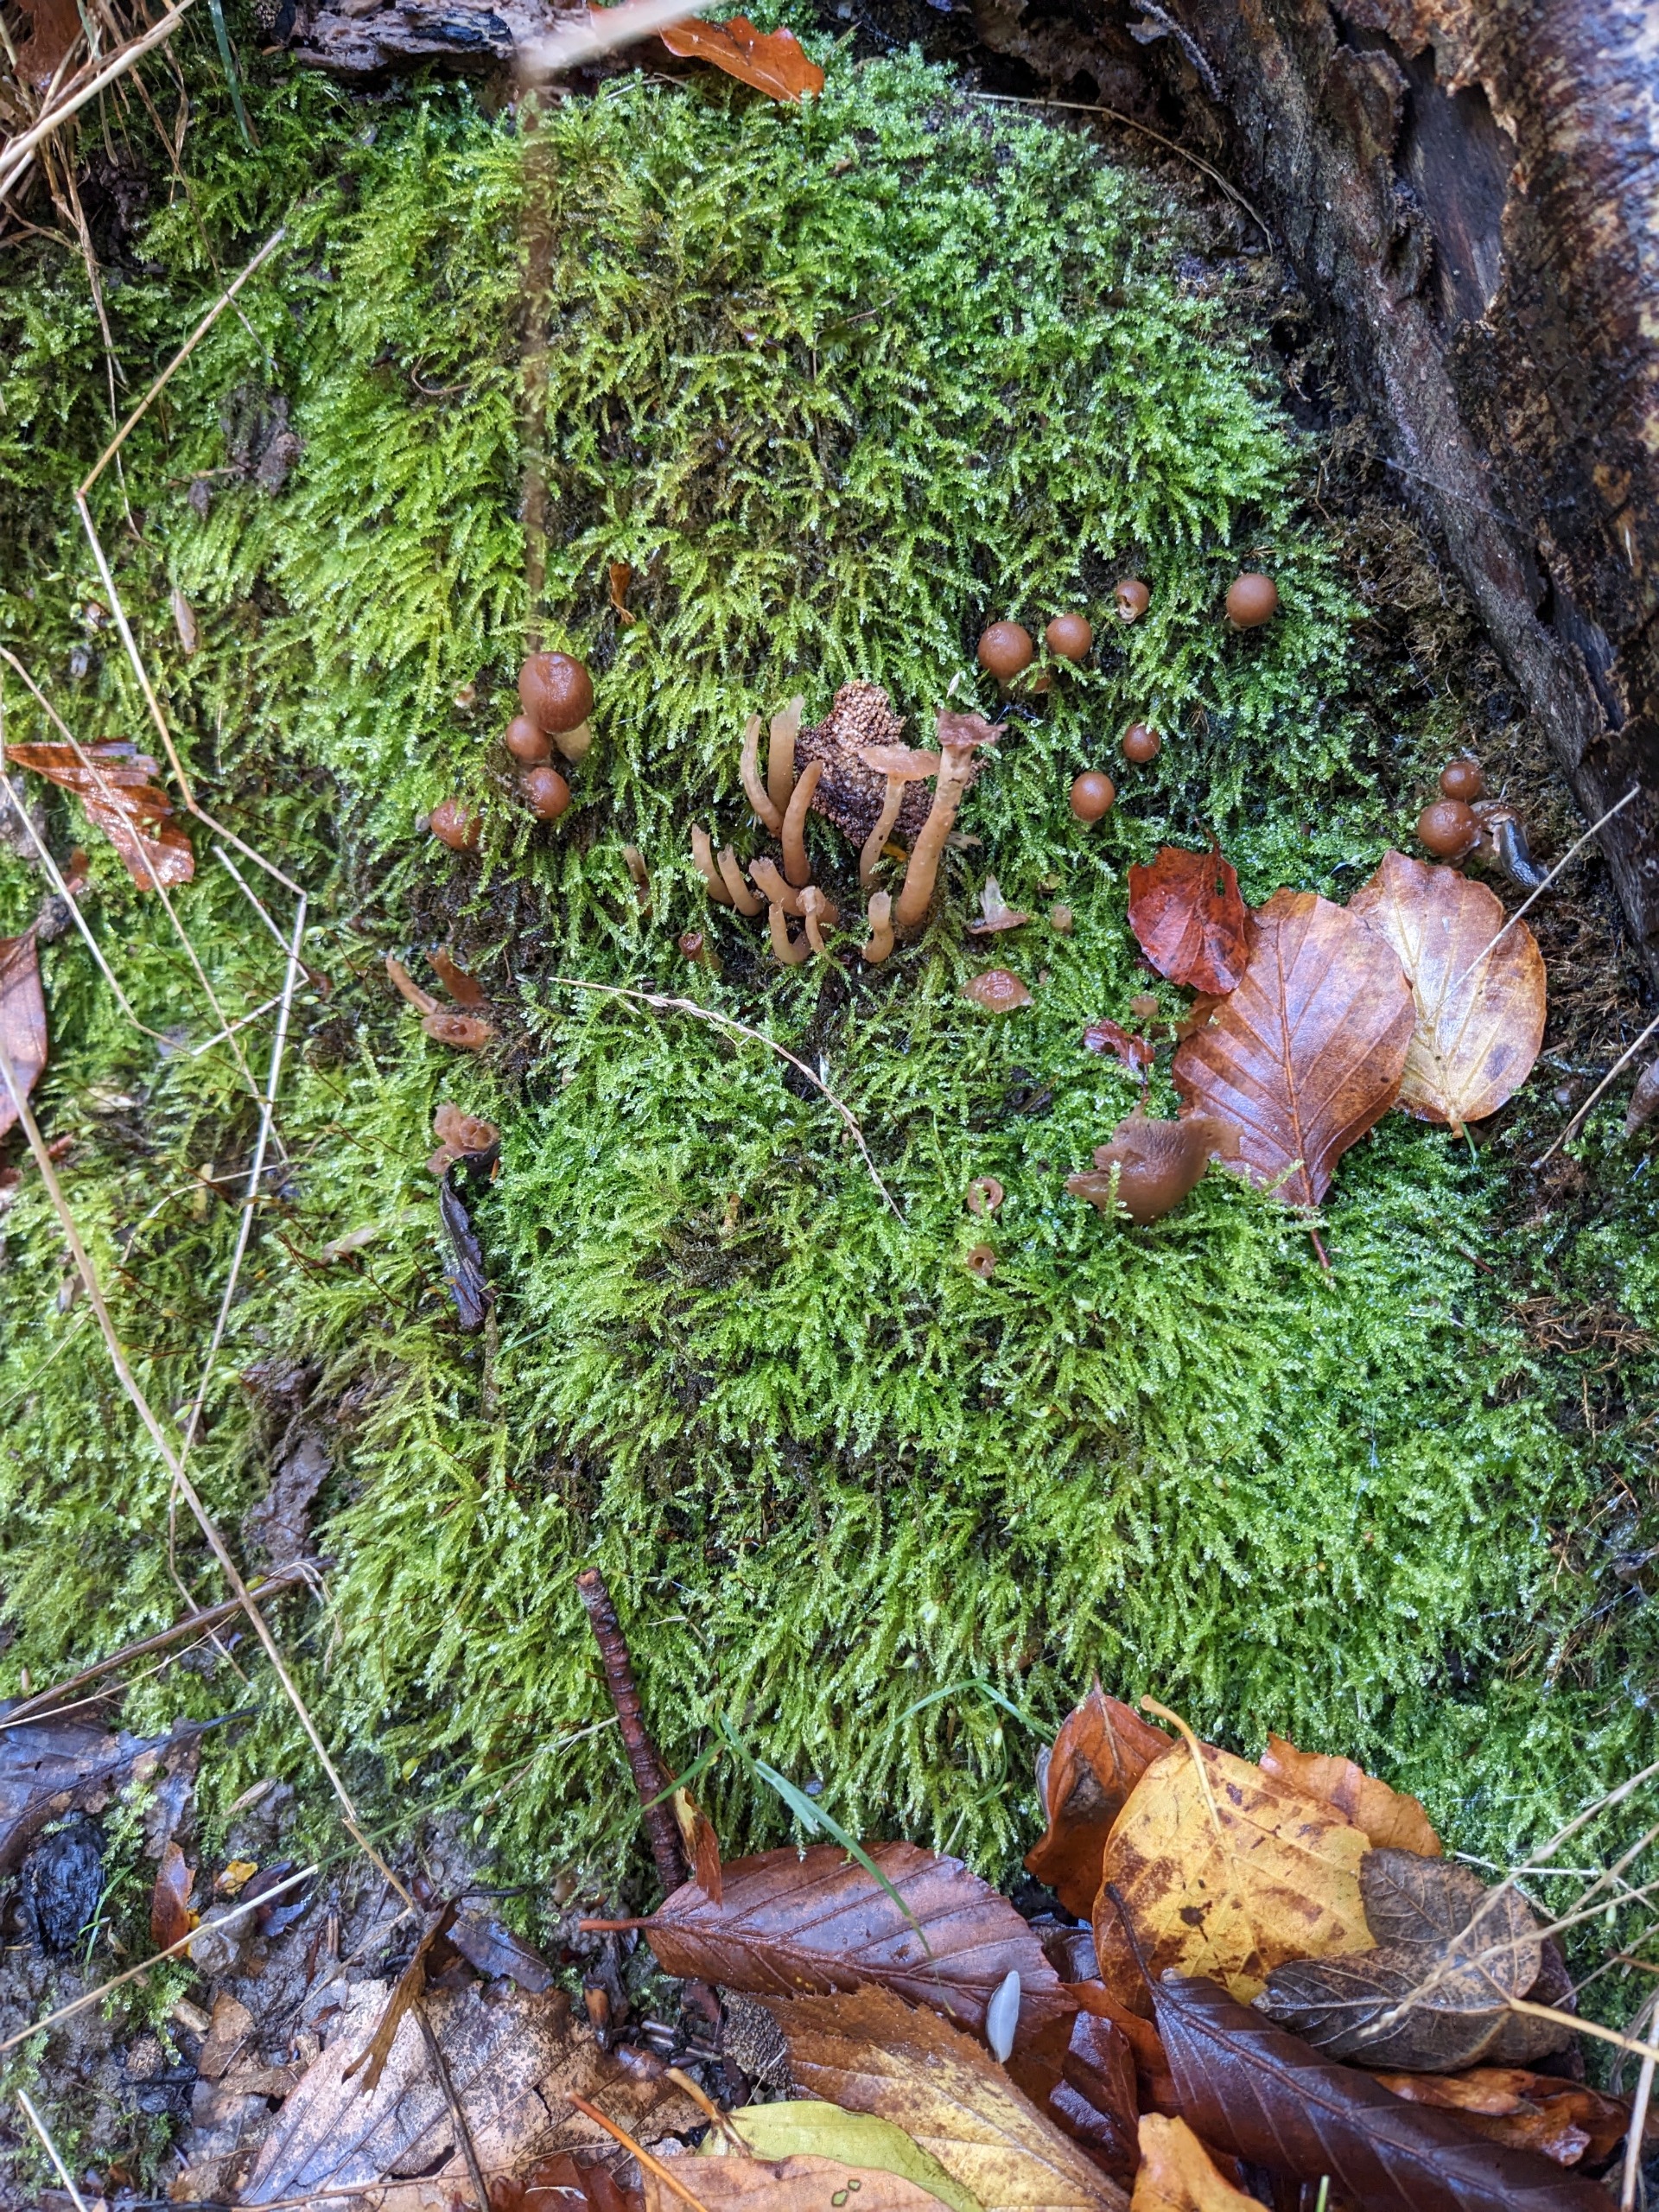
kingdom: Plantae
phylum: Bryophyta
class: Bryopsida
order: Hypnales
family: Brachytheciaceae
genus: Oxyrrhynchium
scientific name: Oxyrrhynchium hians
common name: Ler-vortetand
